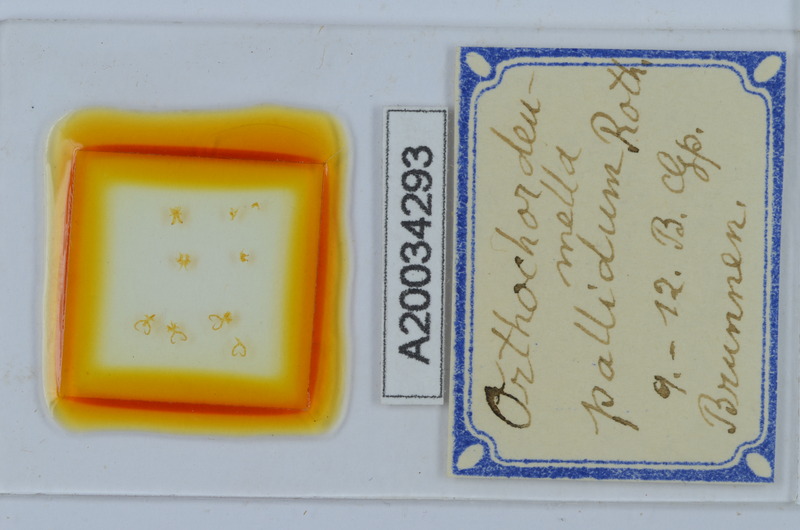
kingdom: Animalia
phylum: Arthropoda
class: Diplopoda
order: Chordeumatida
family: Chordeumatidae
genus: Orthochordeumella
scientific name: Orthochordeumella pallida
